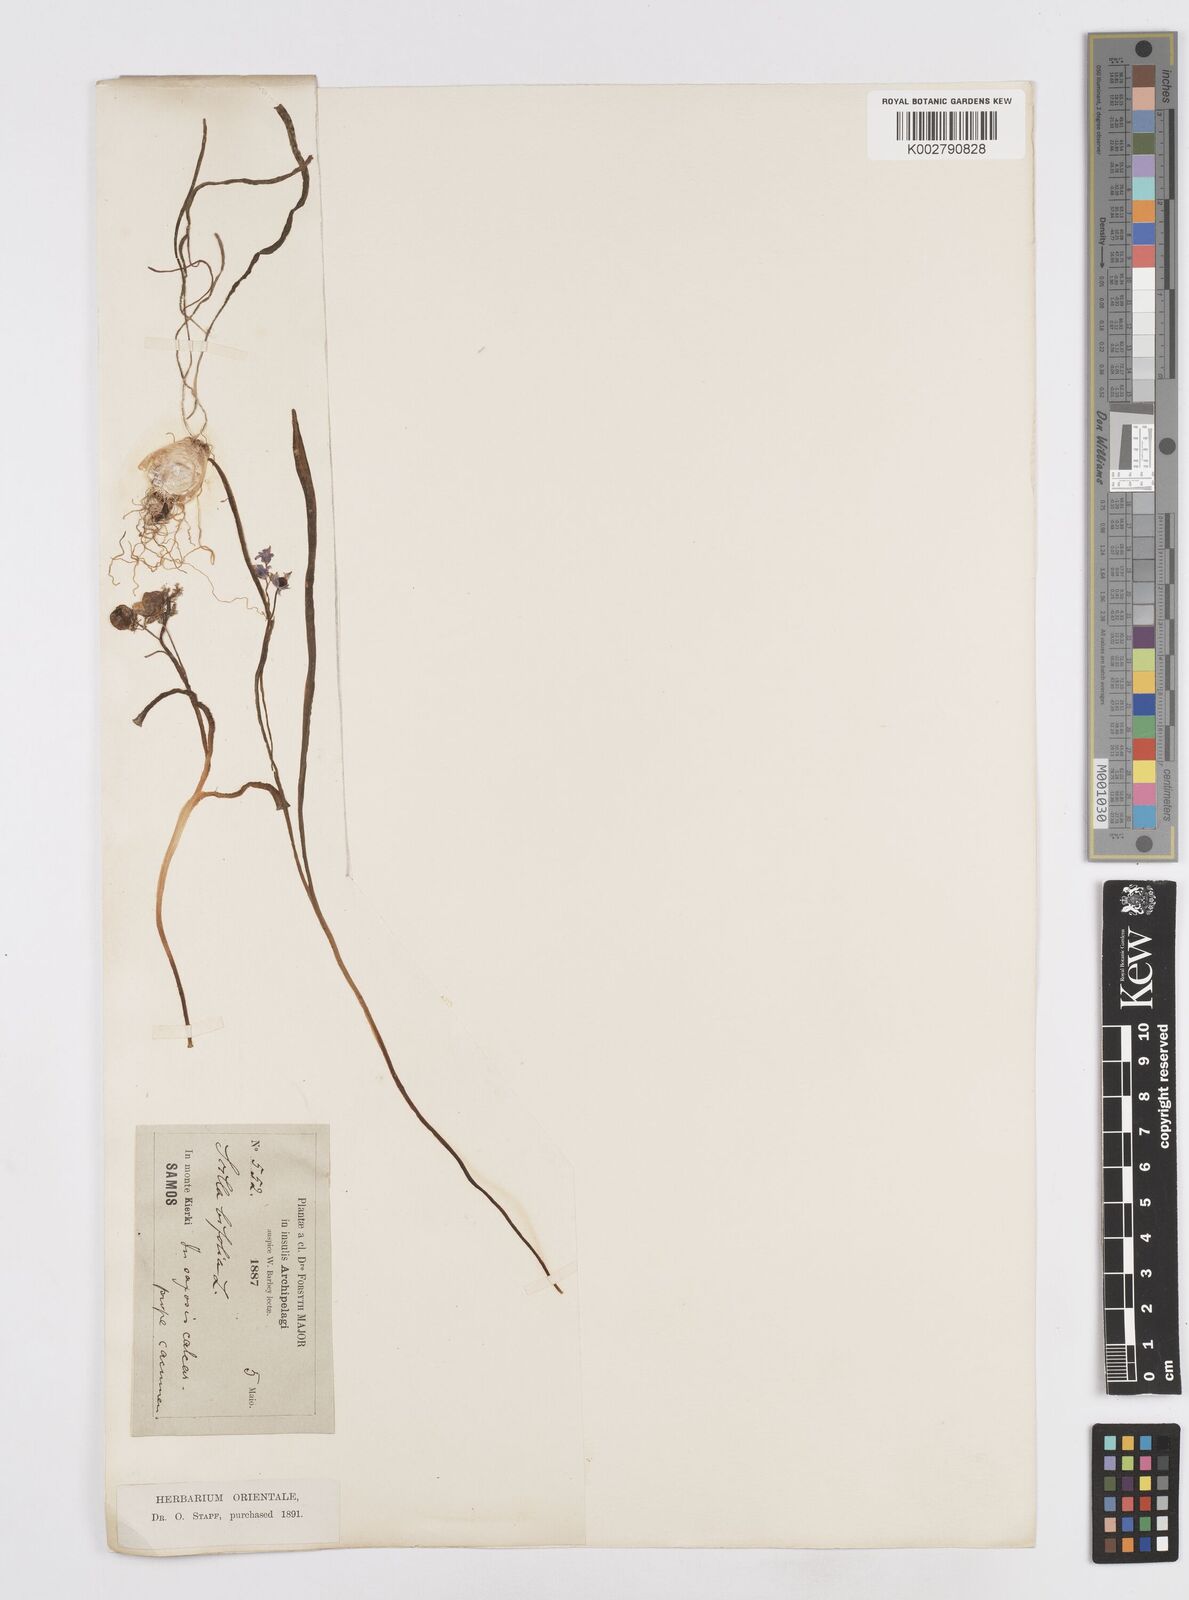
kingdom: Plantae
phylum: Tracheophyta
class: Liliopsida
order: Asparagales
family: Asparagaceae
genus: Scilla
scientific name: Scilla bifolia
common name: Alpine squill
